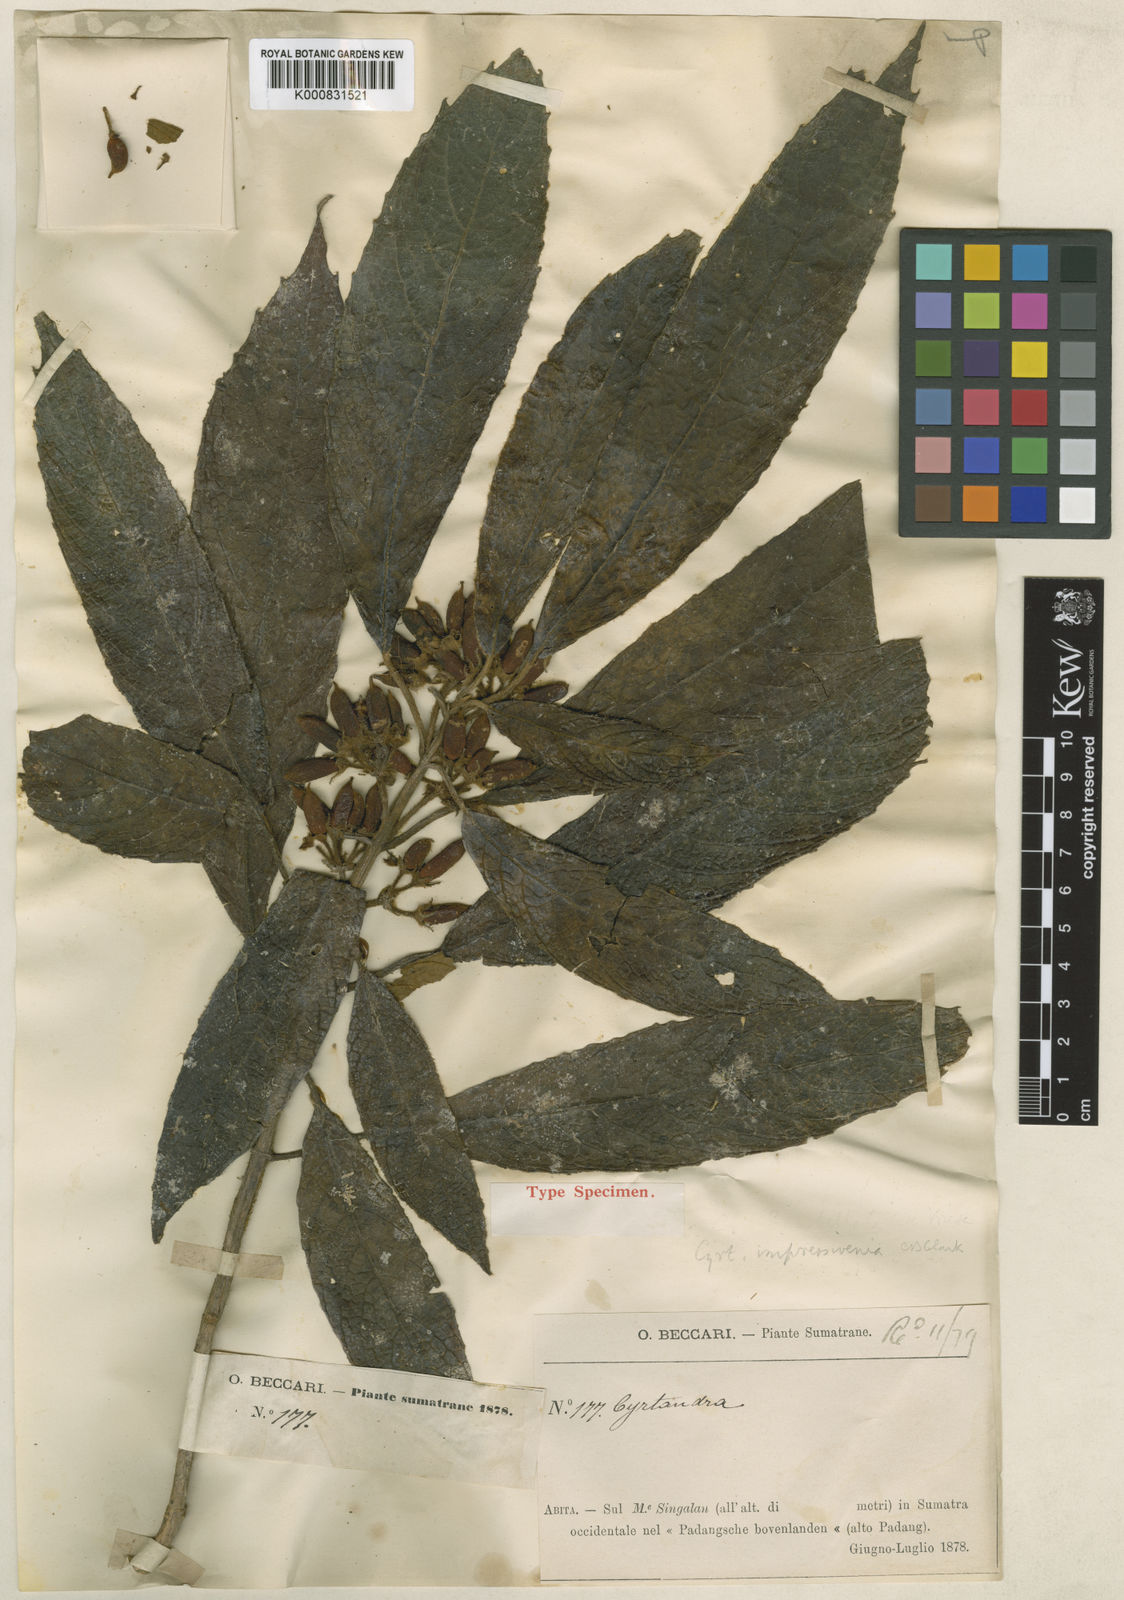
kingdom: Plantae
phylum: Tracheophyta
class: Magnoliopsida
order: Lamiales
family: Gesneriaceae
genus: Cyrtandra
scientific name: Cyrtandra impressivenia
